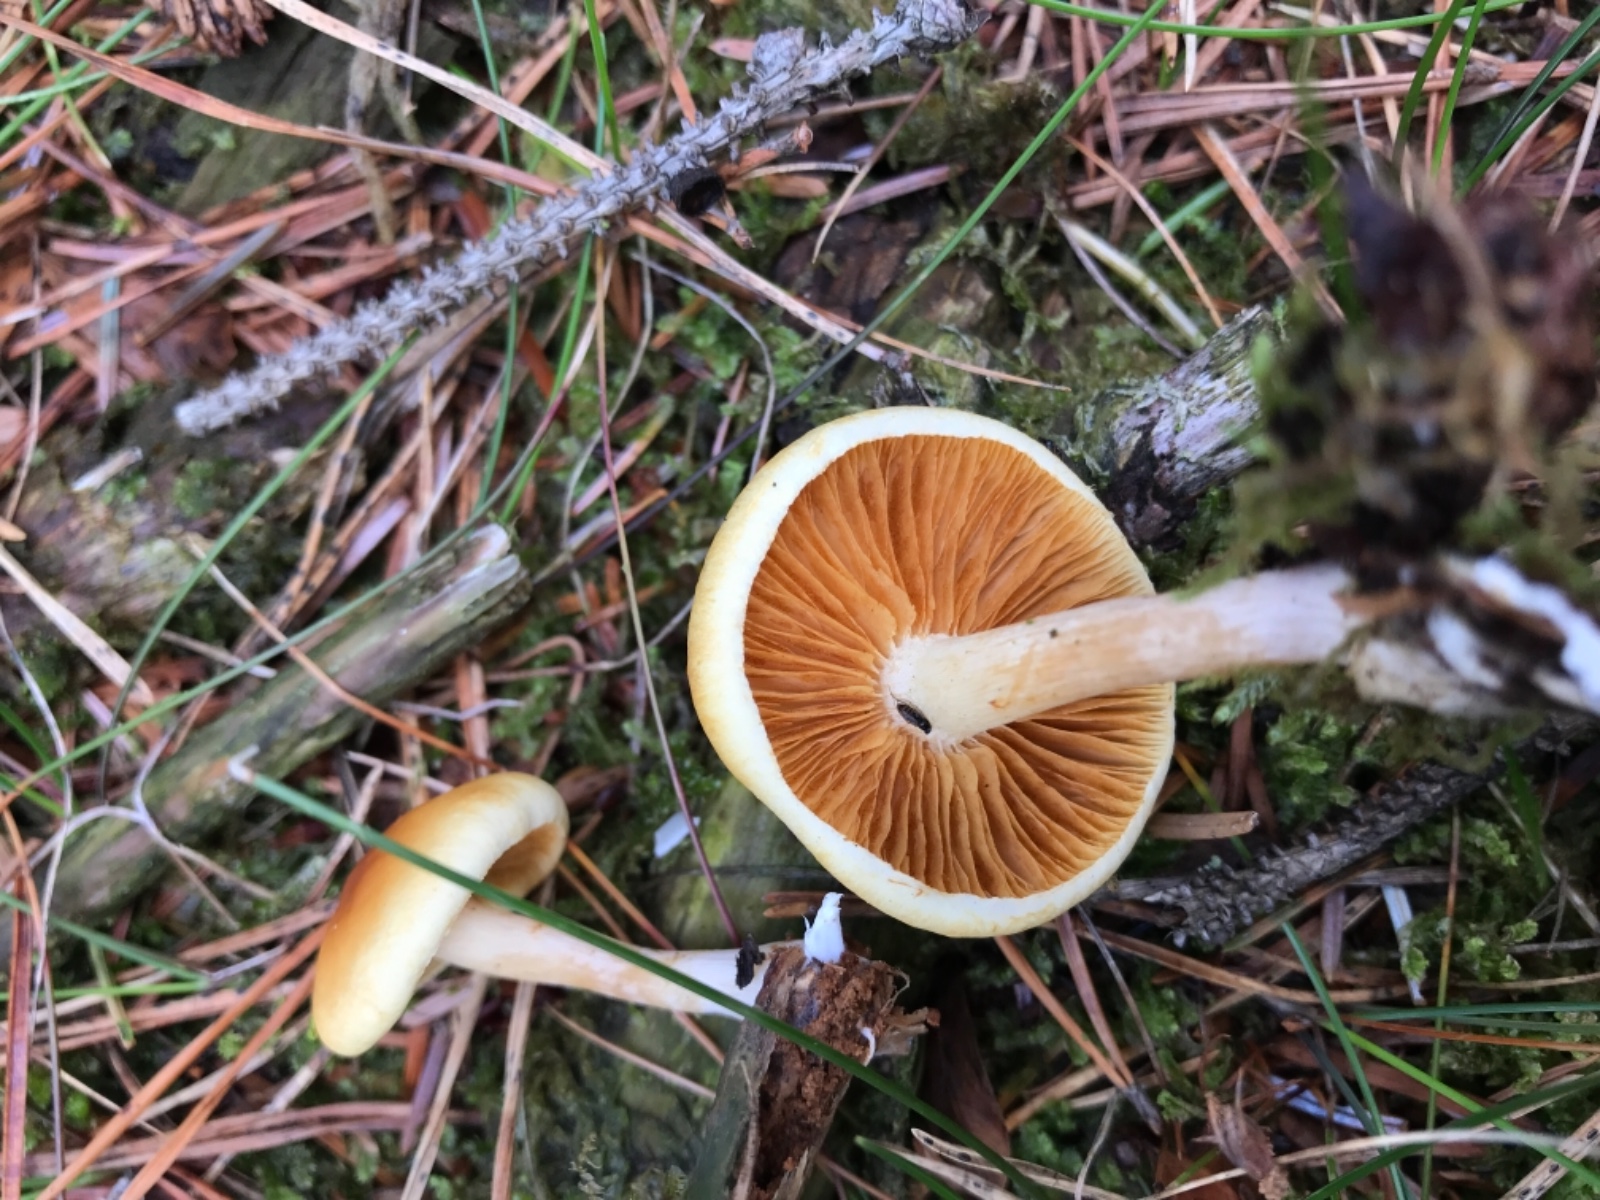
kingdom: Fungi
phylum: Basidiomycota
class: Agaricomycetes
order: Agaricales
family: Hymenogastraceae
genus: Gymnopilus
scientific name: Gymnopilus penetrans
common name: plettet flammehat
